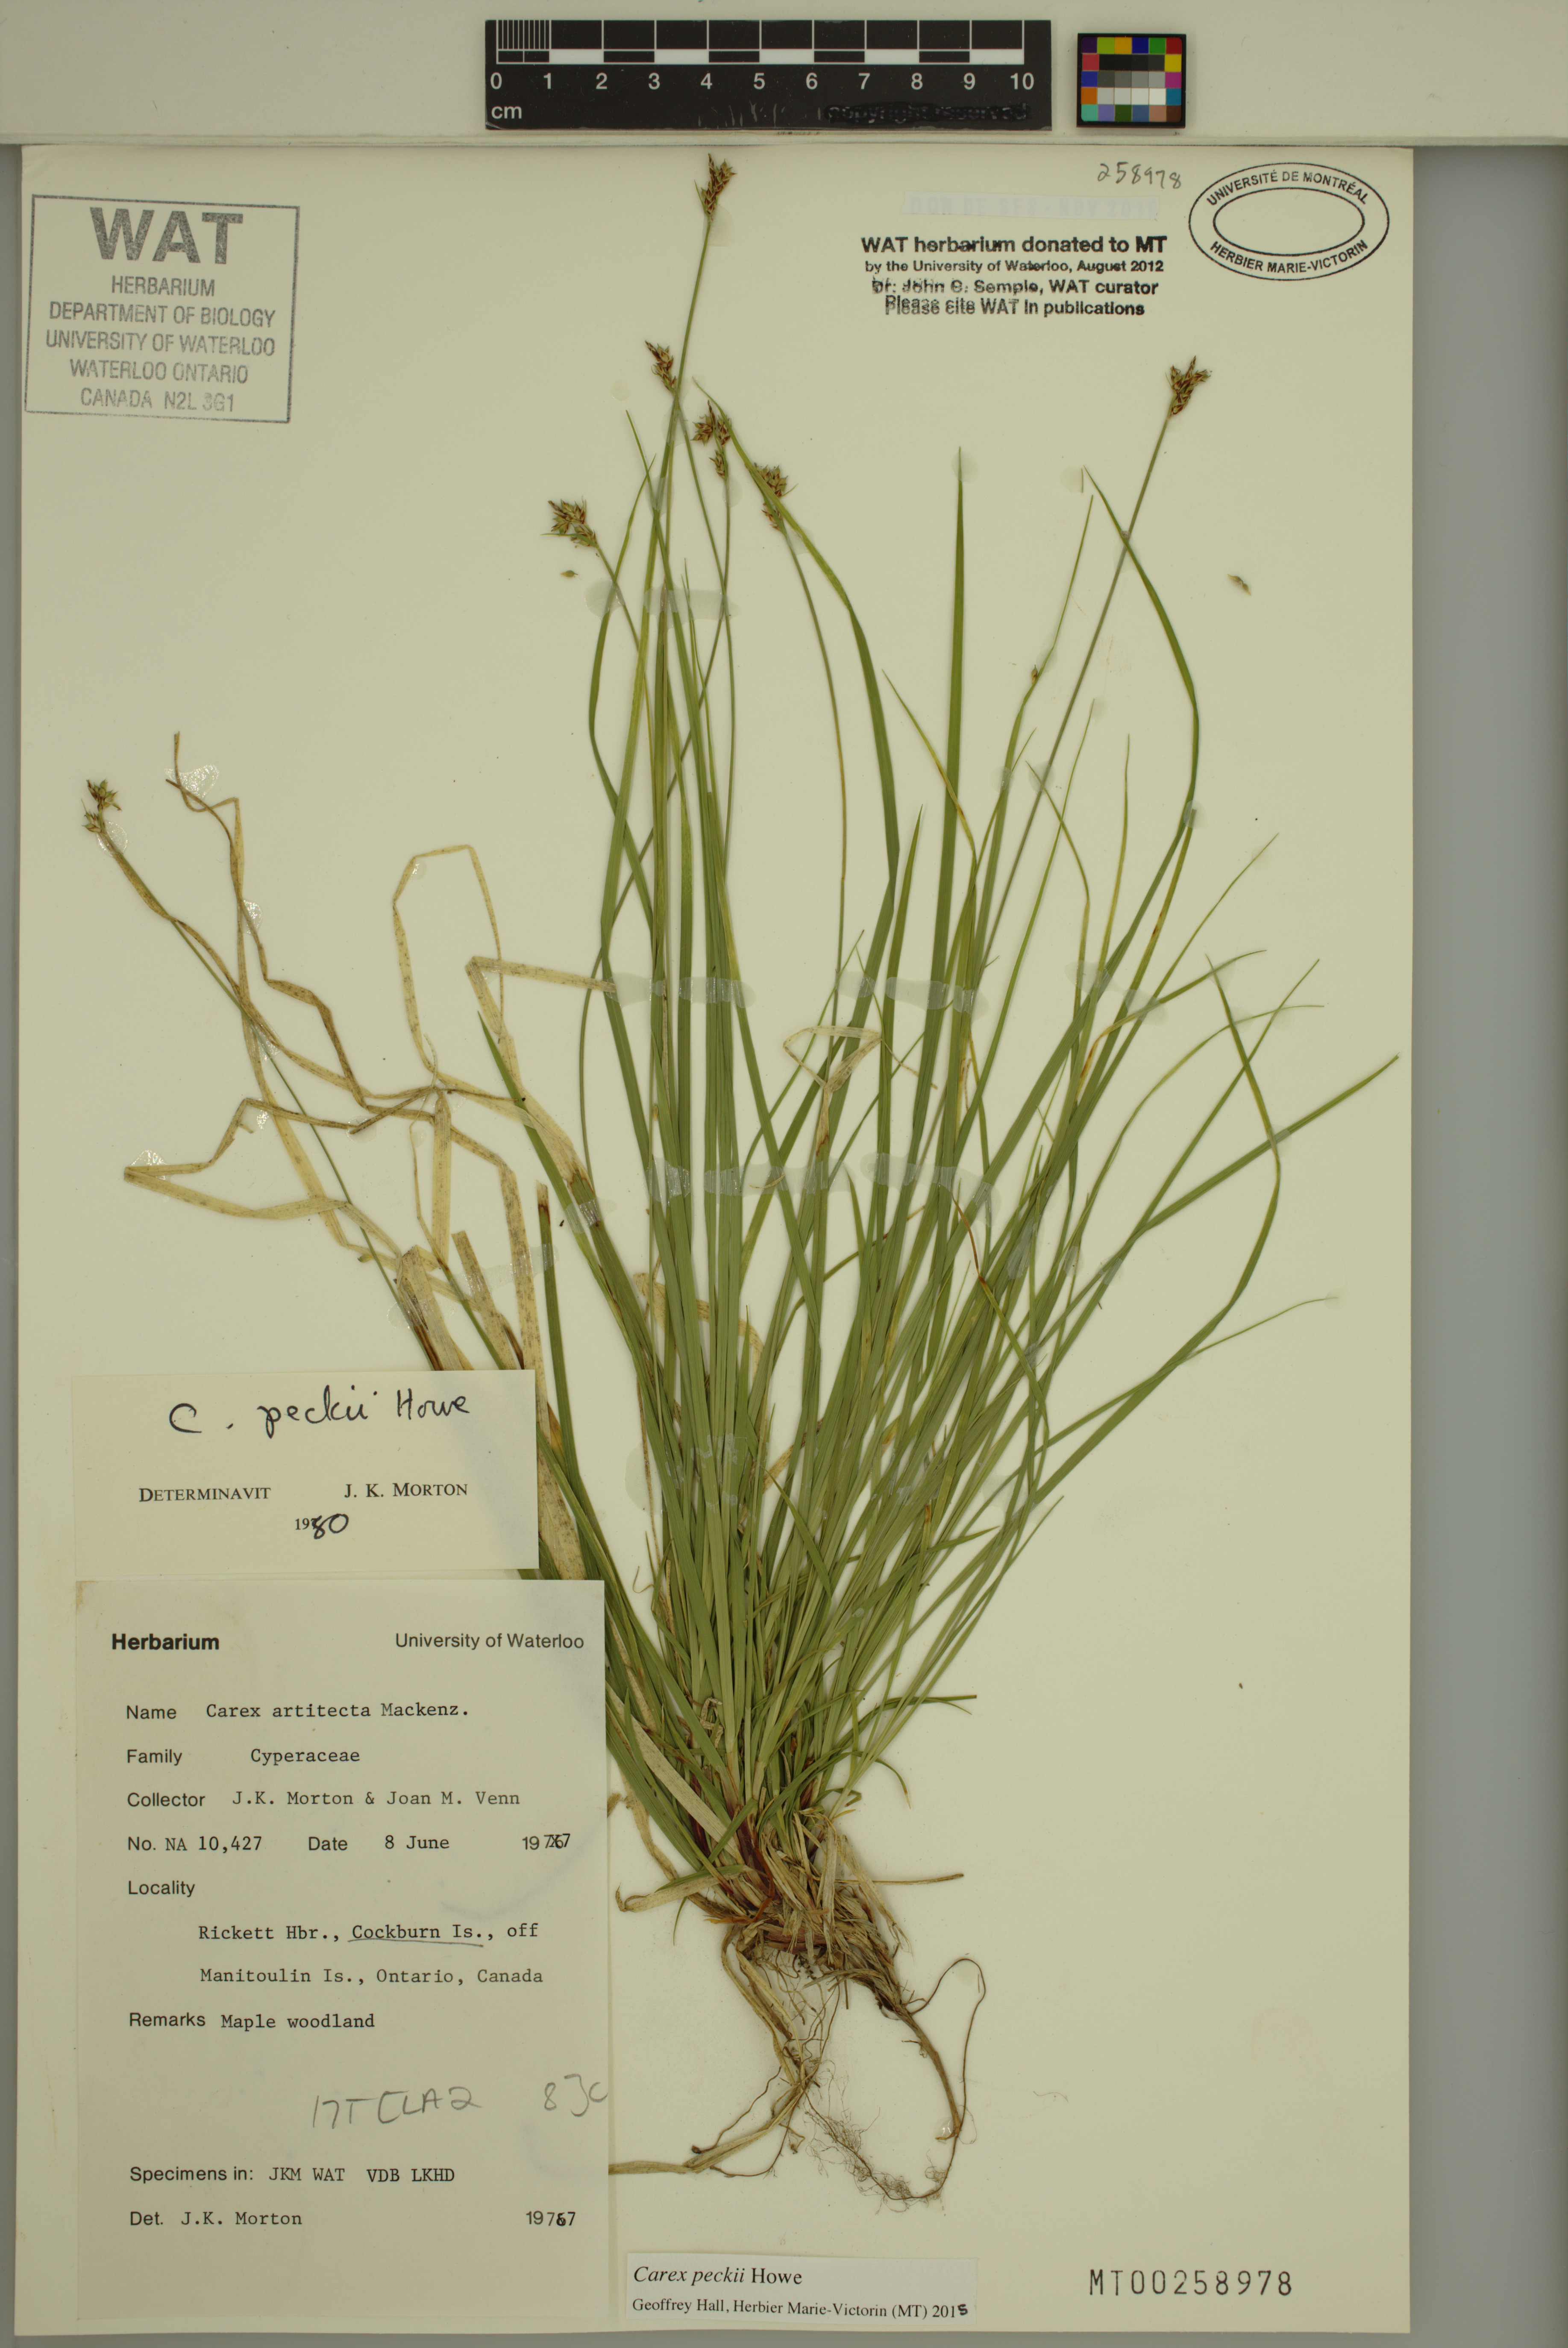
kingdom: Plantae
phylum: Tracheophyta
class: Liliopsida
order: Poales
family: Cyperaceae
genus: Carex
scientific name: Carex peckii
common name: Peck's oak sedge
